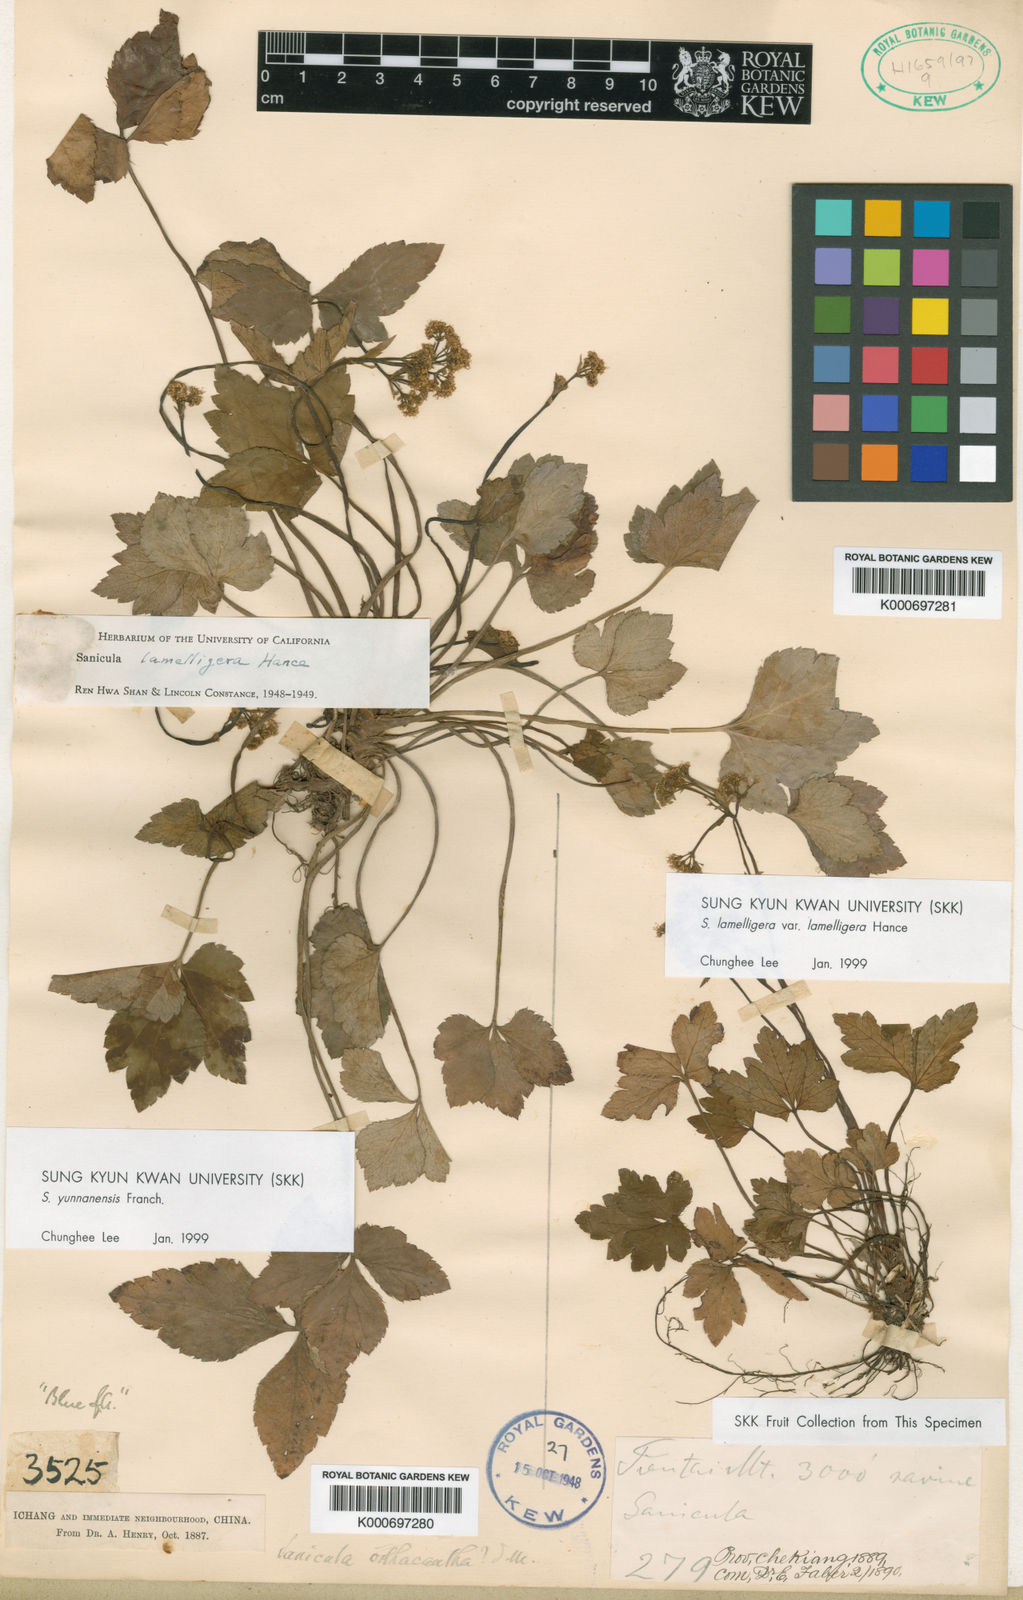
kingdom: Plantae
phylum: Tracheophyta
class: Magnoliopsida
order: Apiales
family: Apiaceae
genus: Sanicula
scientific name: Sanicula orthacantha
